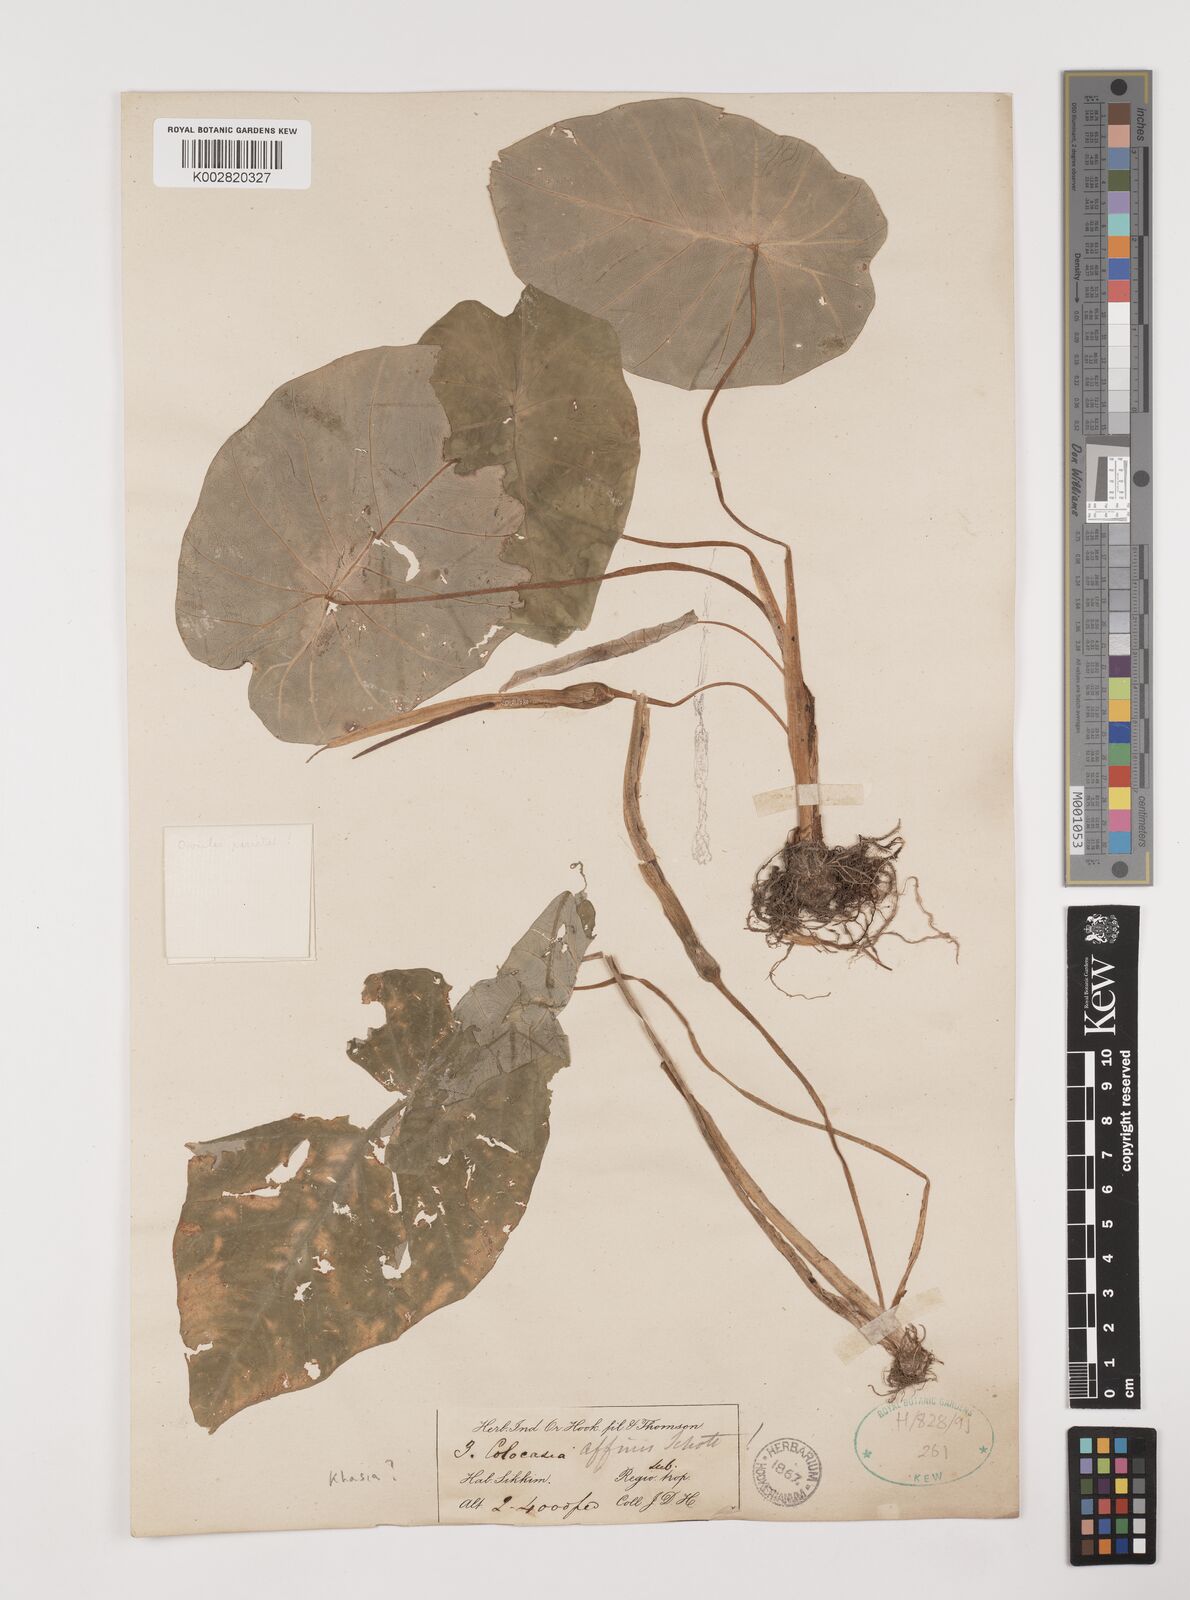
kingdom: Plantae
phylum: Tracheophyta
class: Liliopsida
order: Alismatales
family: Araceae
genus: Colocasia
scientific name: Colocasia affinis
